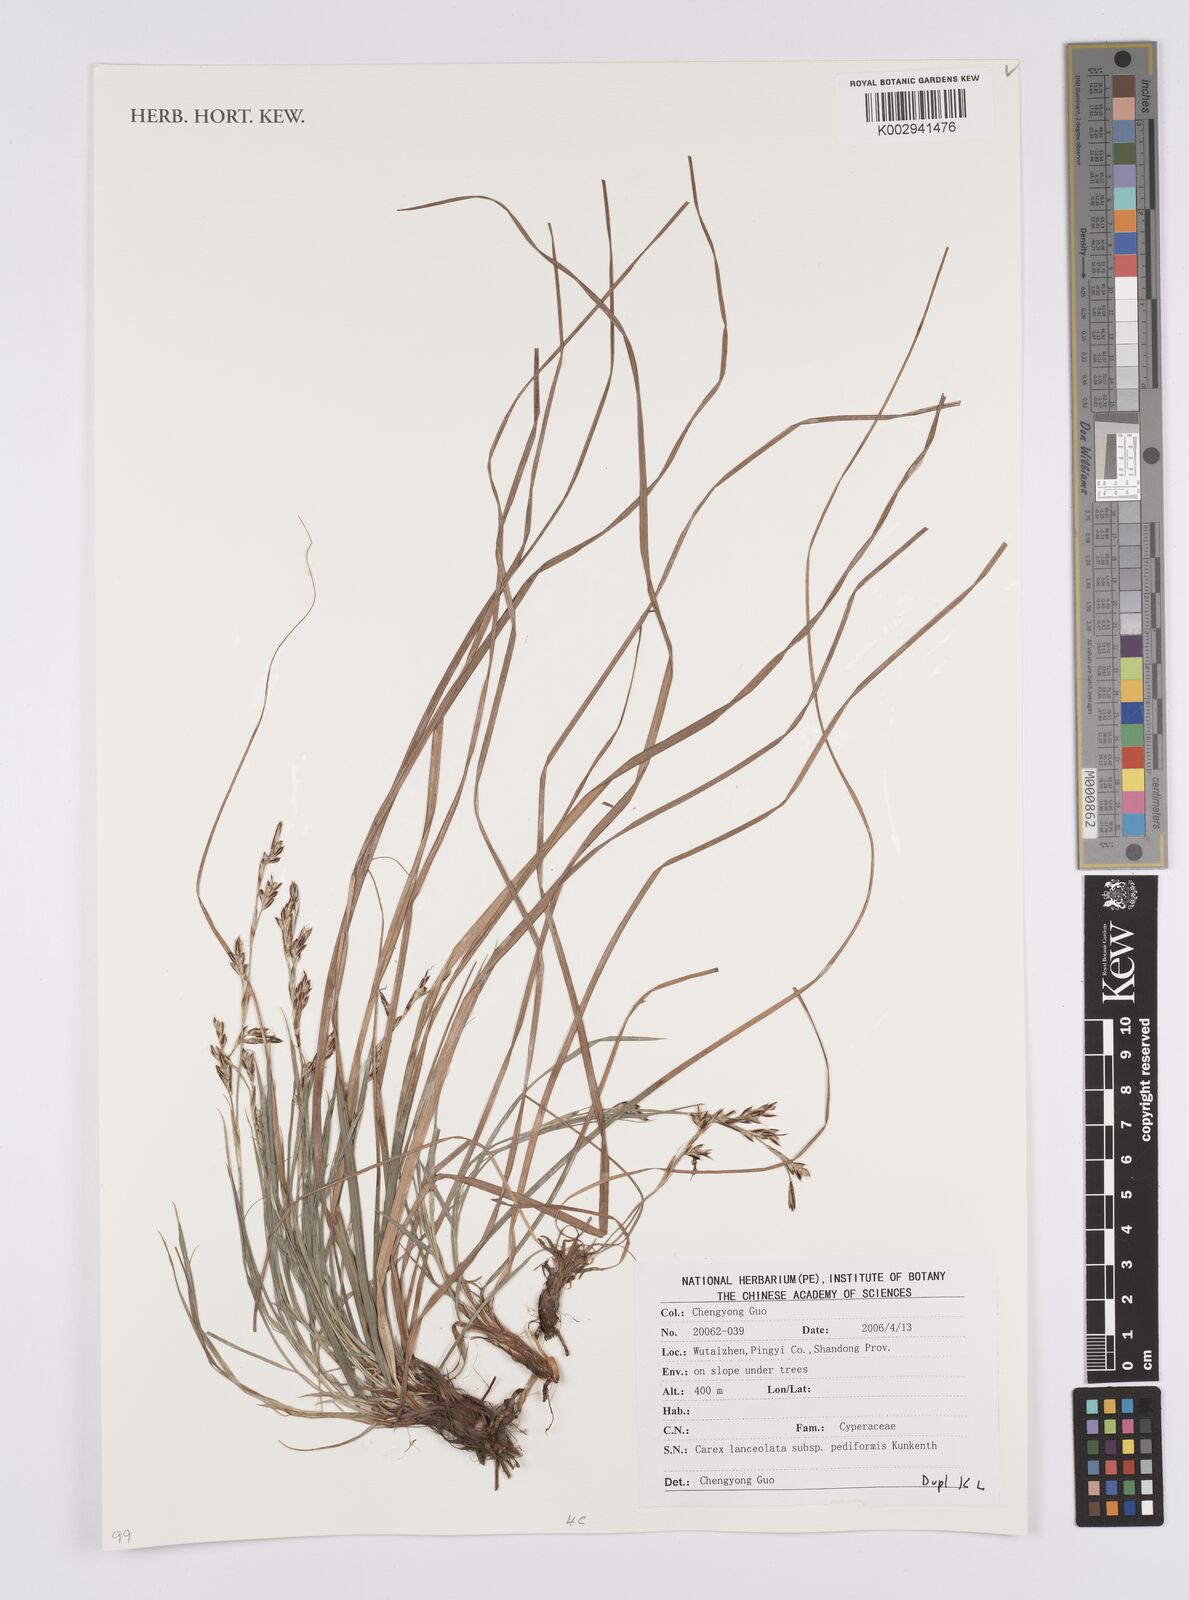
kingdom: Plantae
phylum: Tracheophyta
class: Liliopsida
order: Poales
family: Cyperaceae
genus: Carex
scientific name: Carex lanceolata
